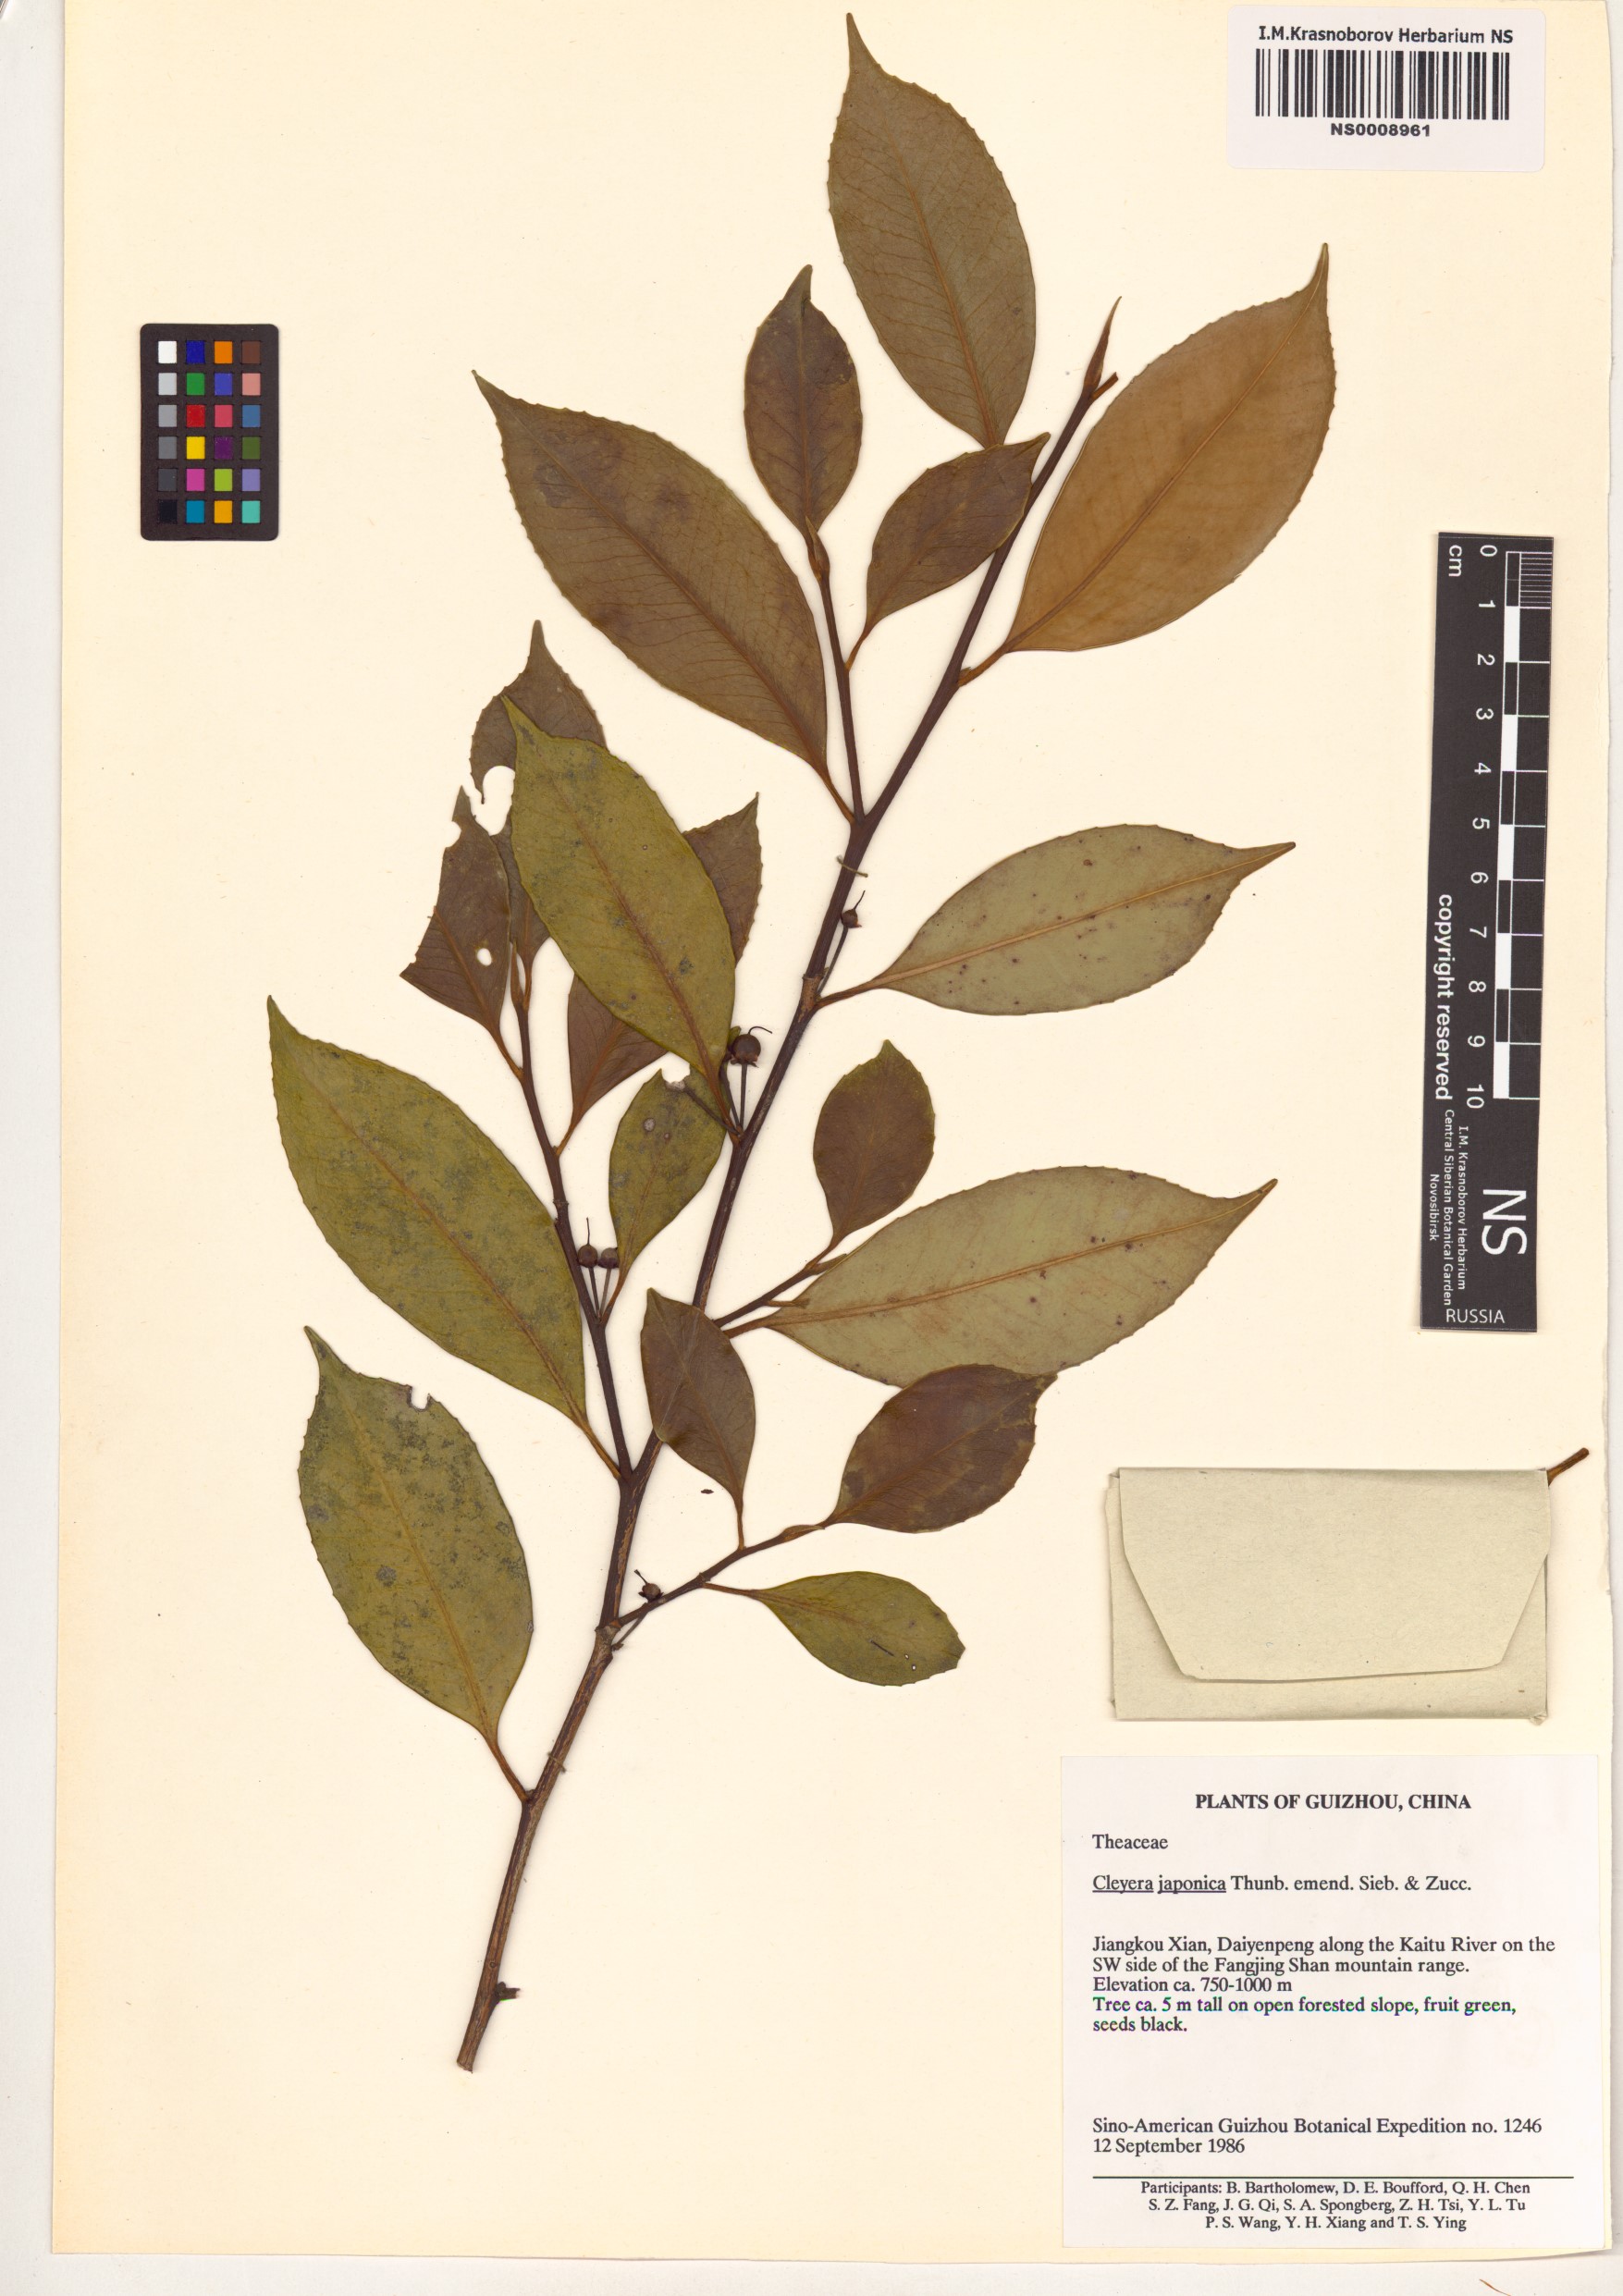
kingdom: Plantae
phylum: Tracheophyta
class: Magnoliopsida
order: Ericales
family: Pentaphylacaceae
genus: Cleyera
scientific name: Cleyera japonica
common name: Sakaki
